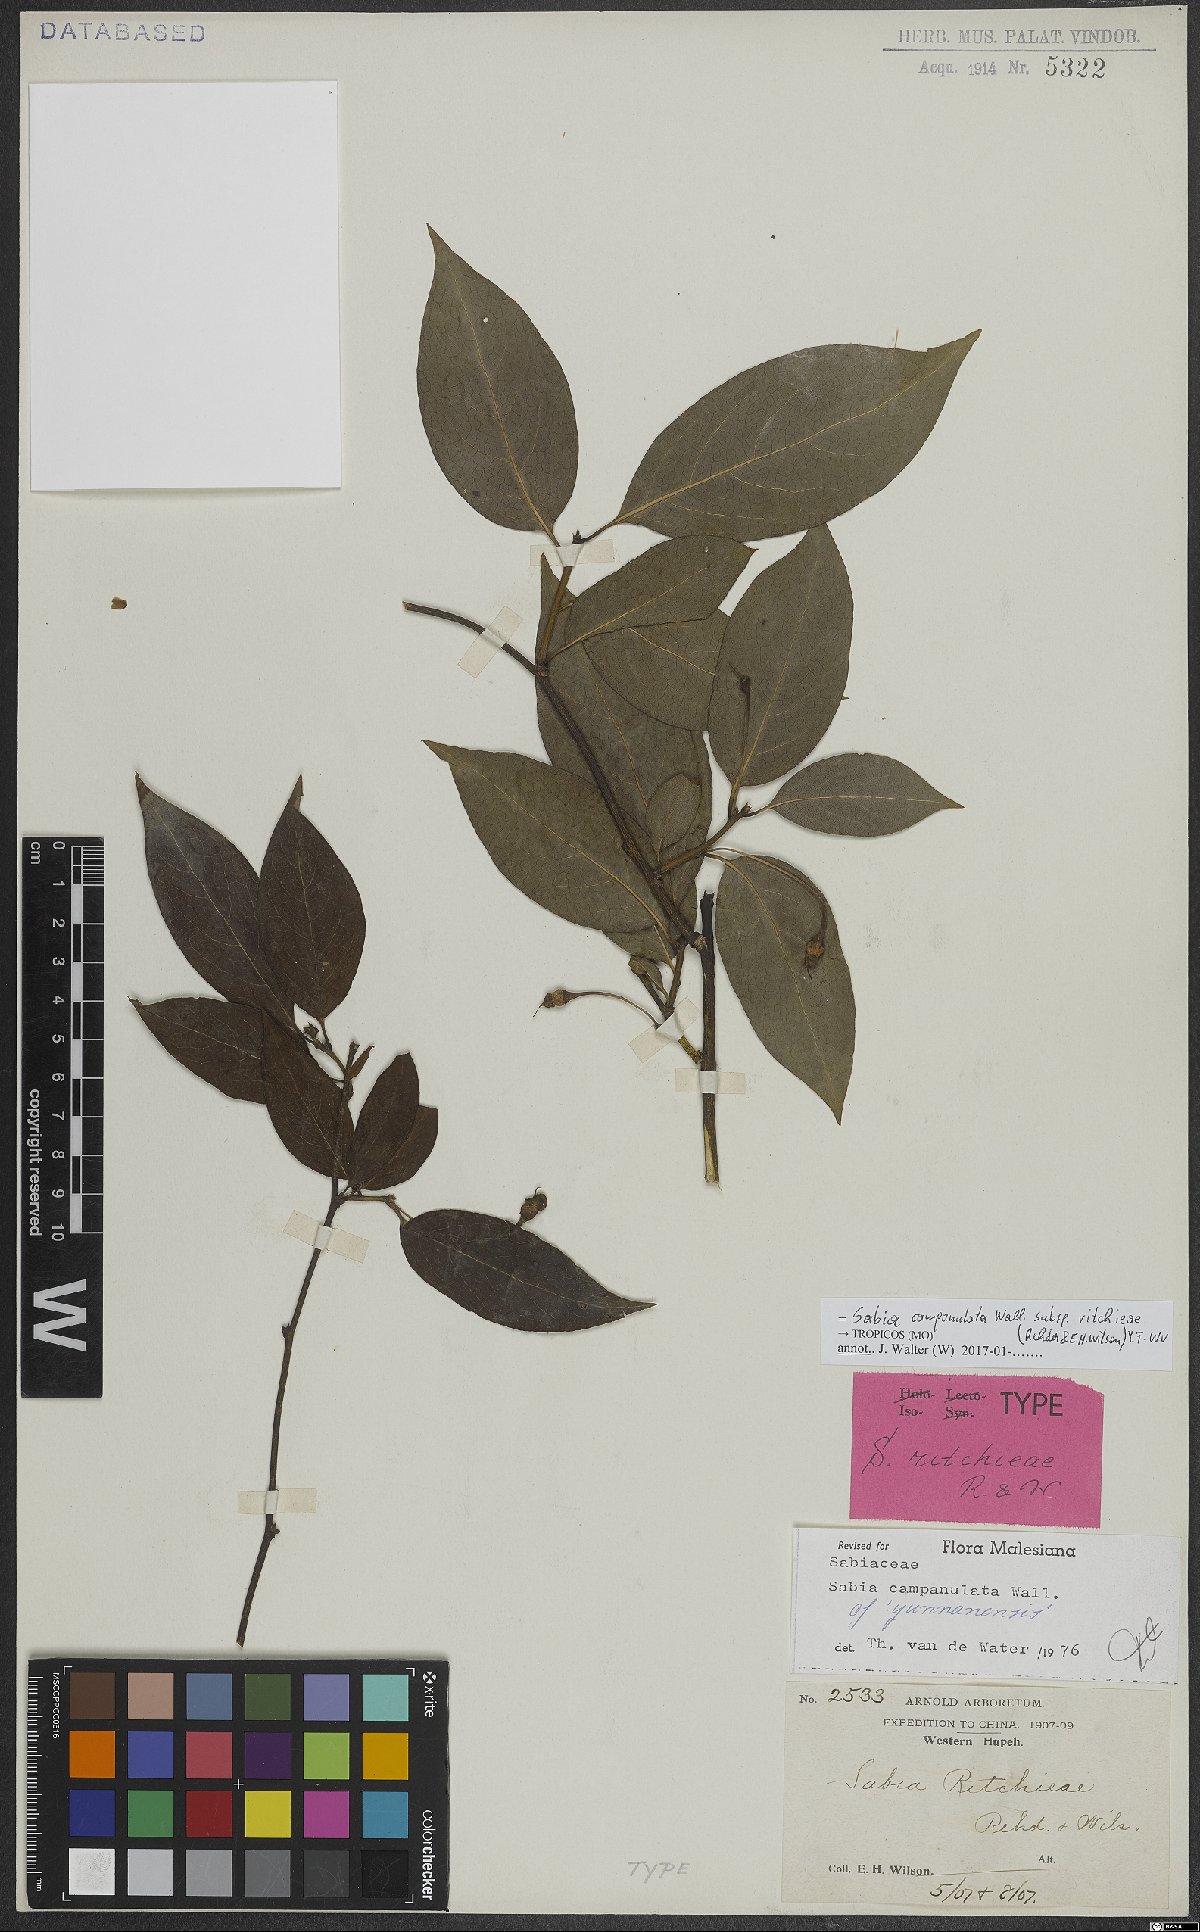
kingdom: Plantae
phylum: Tracheophyta
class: Magnoliopsida
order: Proteales
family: Sabiaceae
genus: Sabia
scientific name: Sabia campanulata
